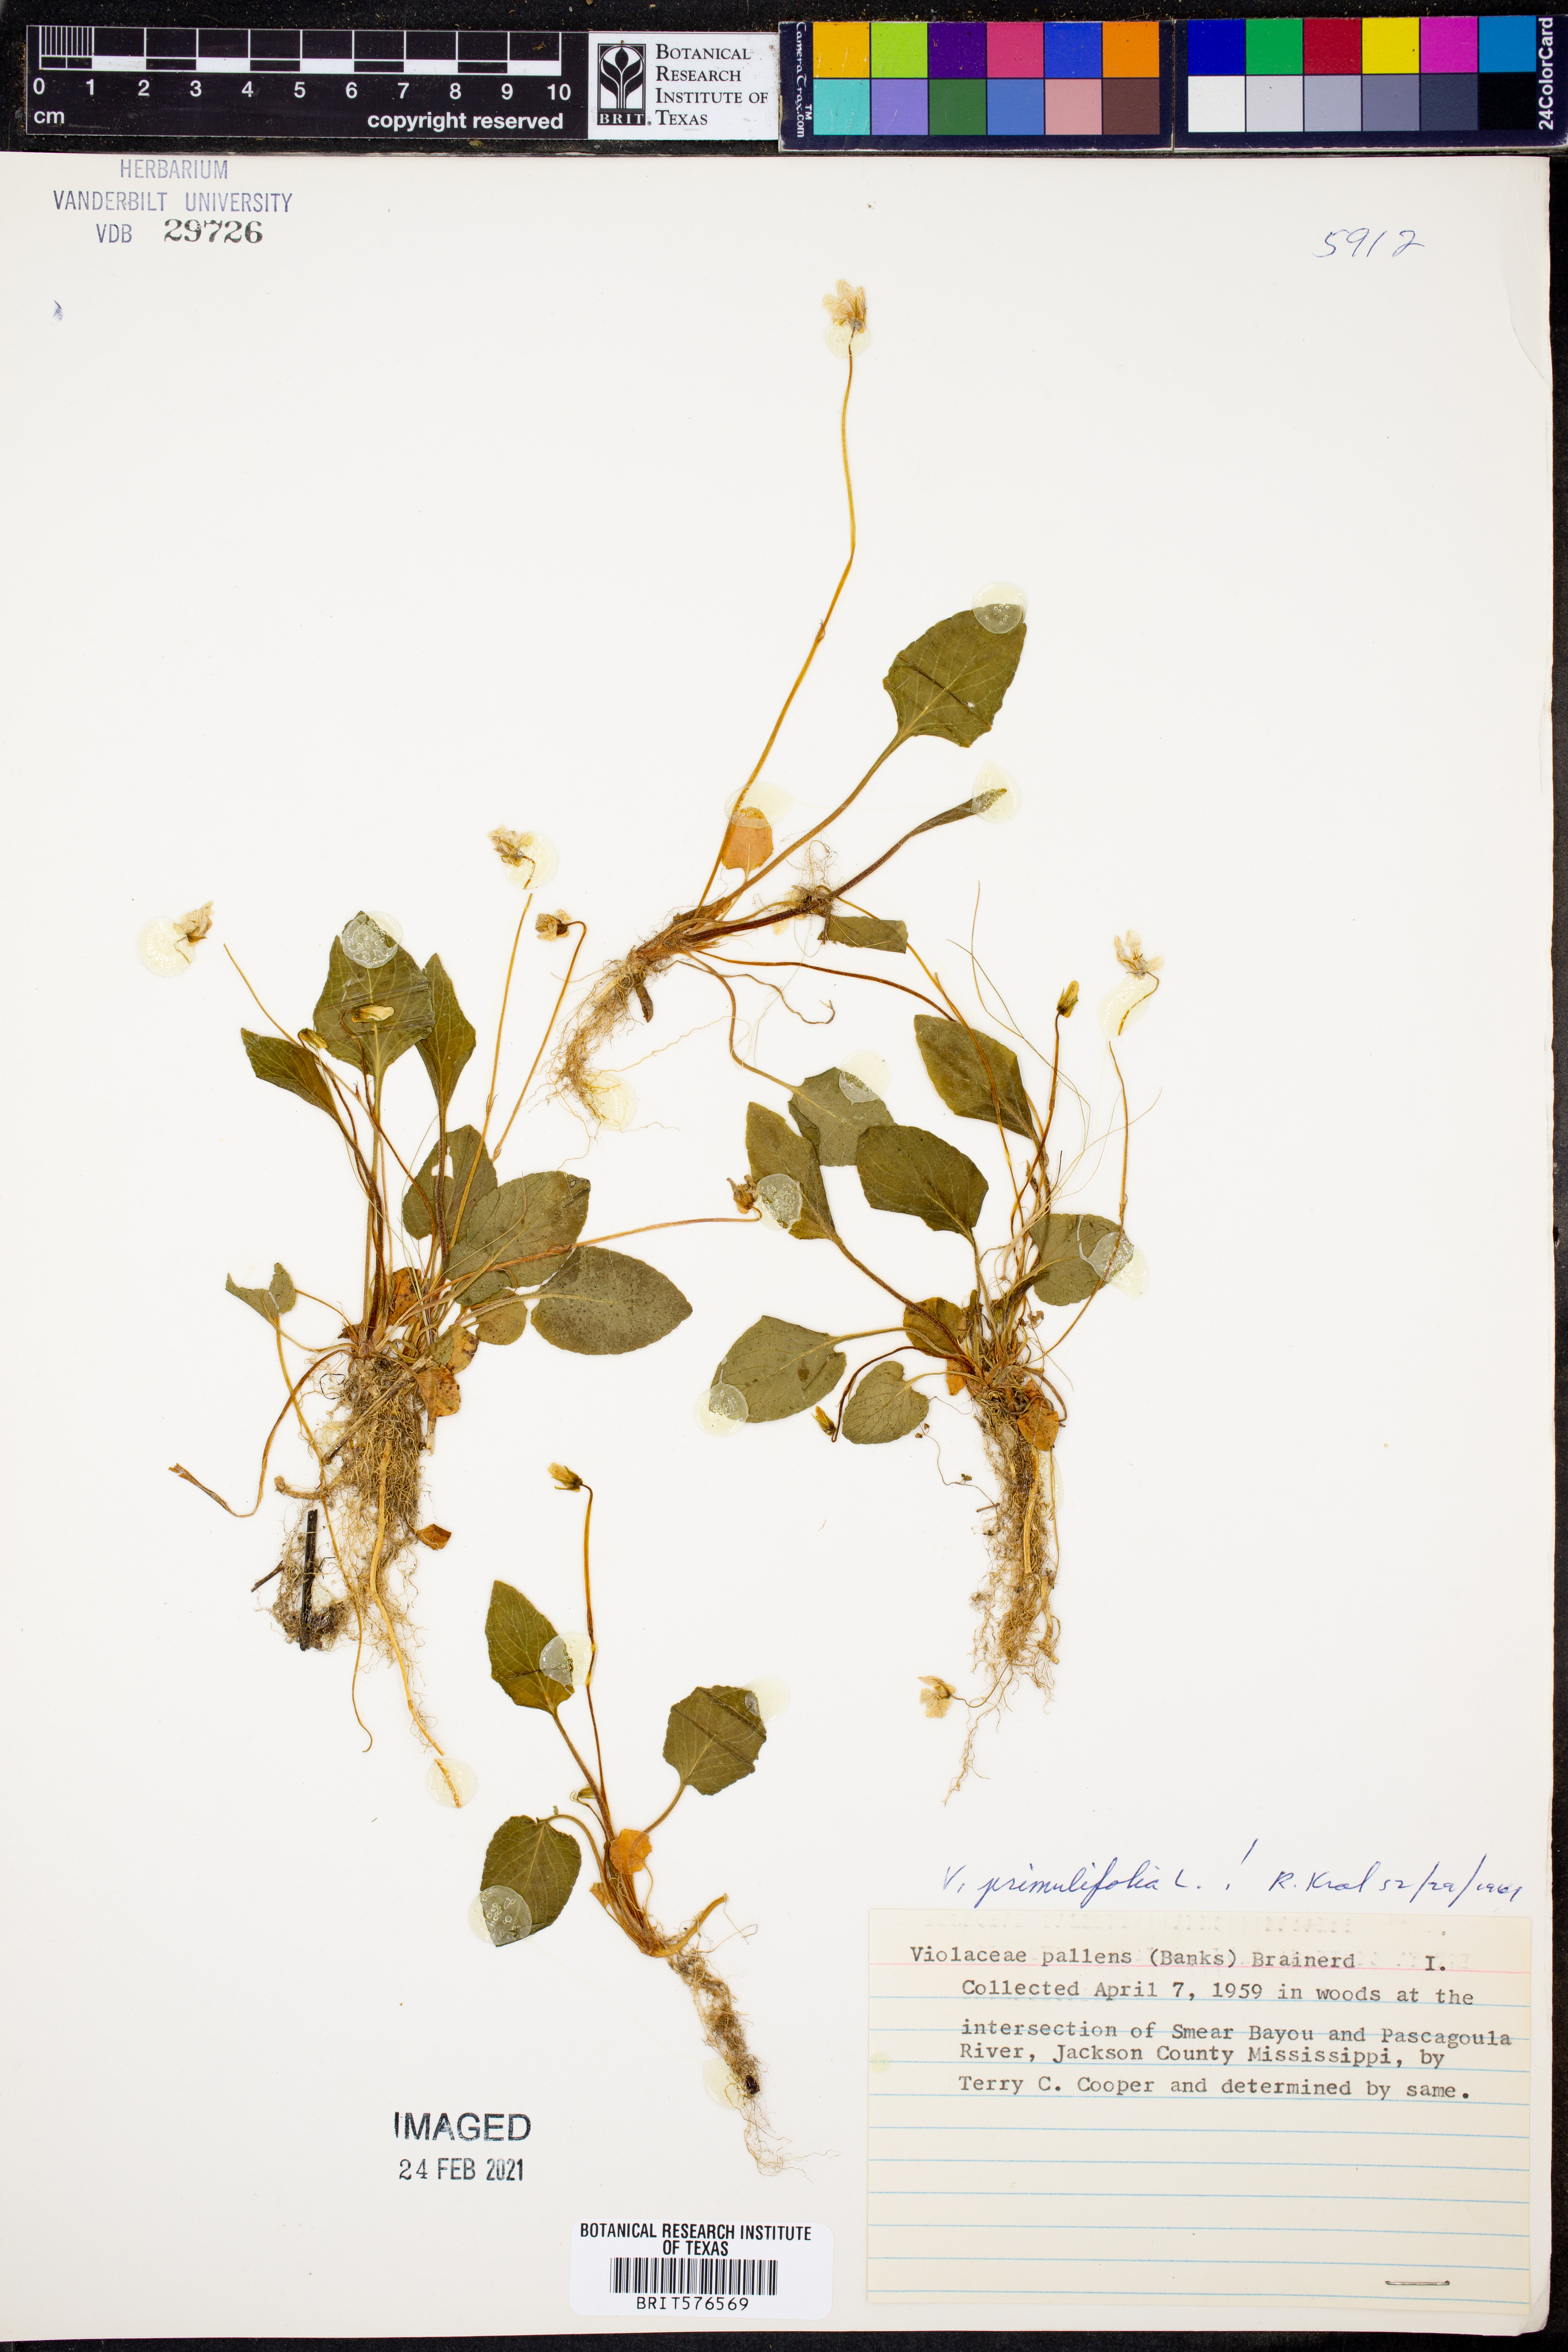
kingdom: Plantae
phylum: Tracheophyta
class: Magnoliopsida
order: Malpighiales
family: Violaceae
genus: Viola
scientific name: Viola primulifolia
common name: Primrose-leaf violet
